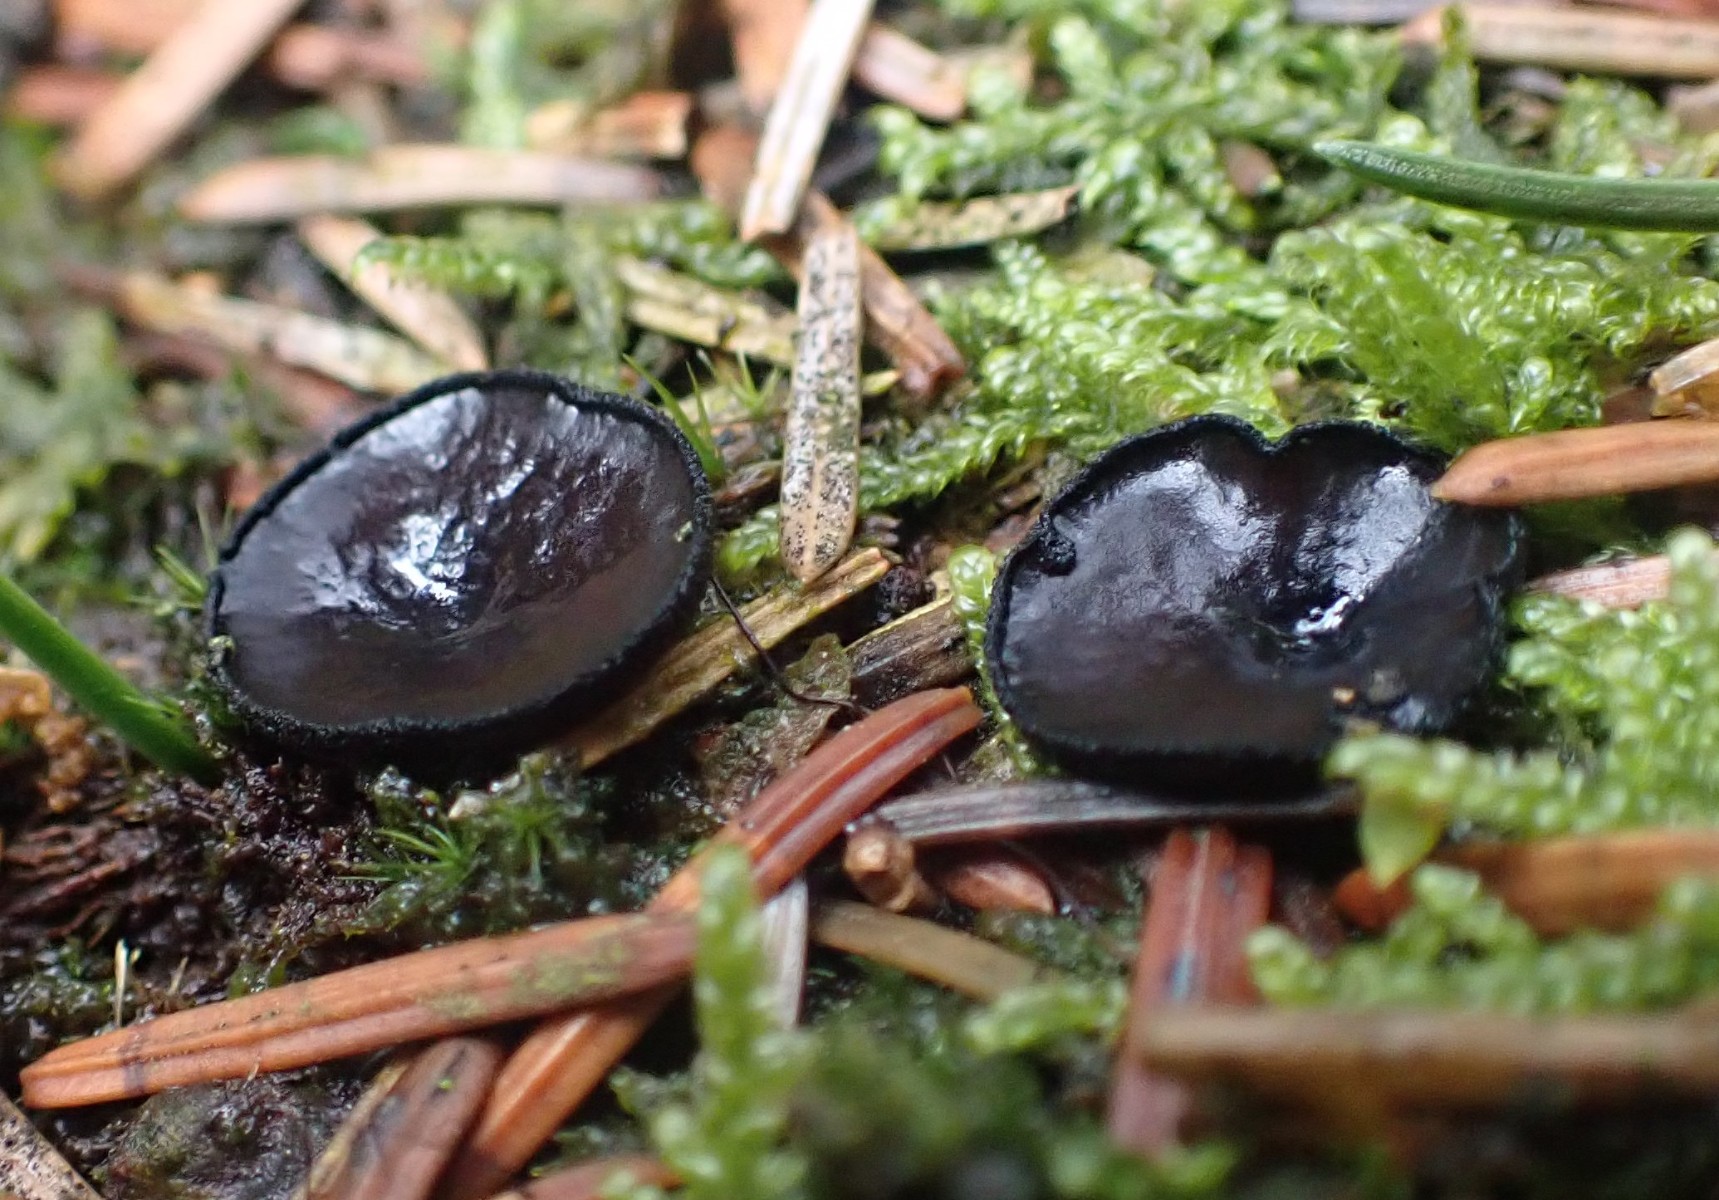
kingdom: Fungi
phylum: Ascomycota
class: Pezizomycetes
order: Pezizales
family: Sarcosomataceae
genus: Pseudoplectania
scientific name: Pseudoplectania nigrella
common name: almindelig sortbæger
